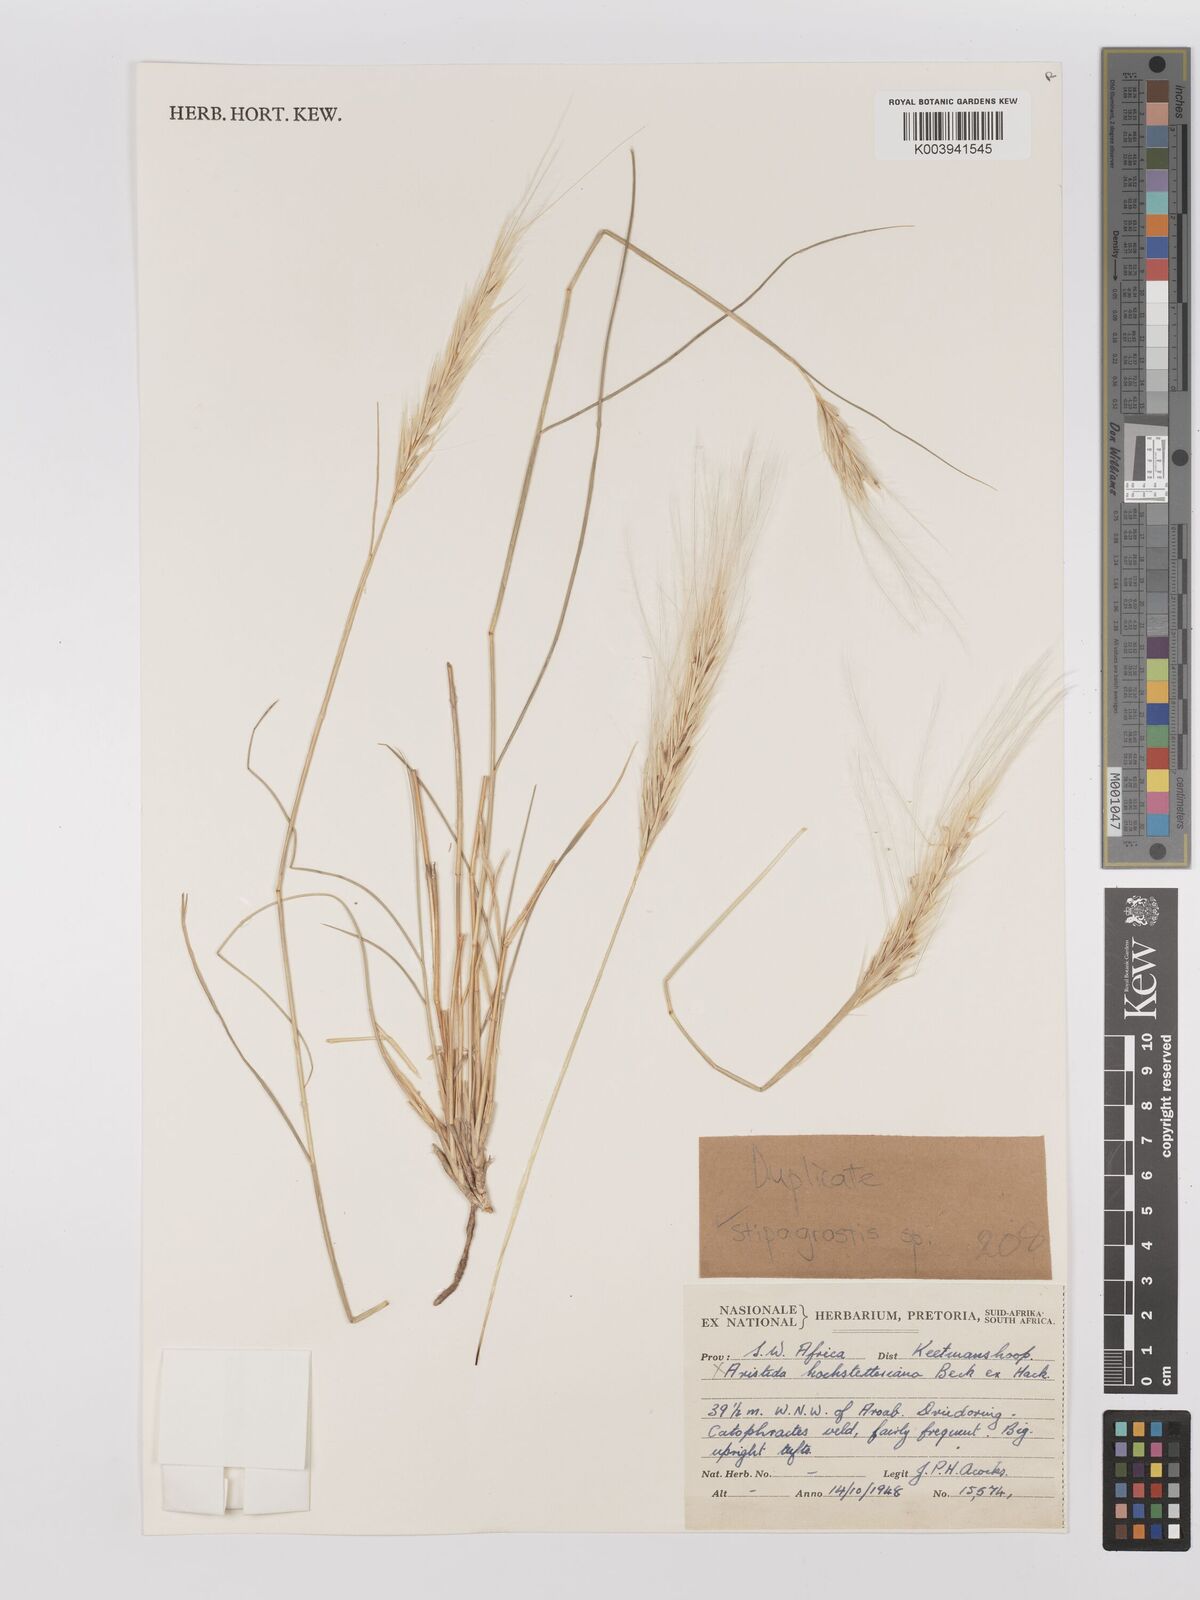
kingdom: Plantae
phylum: Tracheophyta
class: Liliopsida
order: Poales
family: Poaceae
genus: Stipagrostis
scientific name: Stipagrostis hochstetteriana
